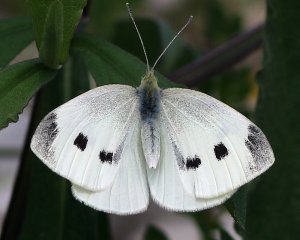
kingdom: Animalia
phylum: Arthropoda
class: Insecta
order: Lepidoptera
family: Pieridae
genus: Pieris
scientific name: Pieris rapae
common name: Cabbage White
